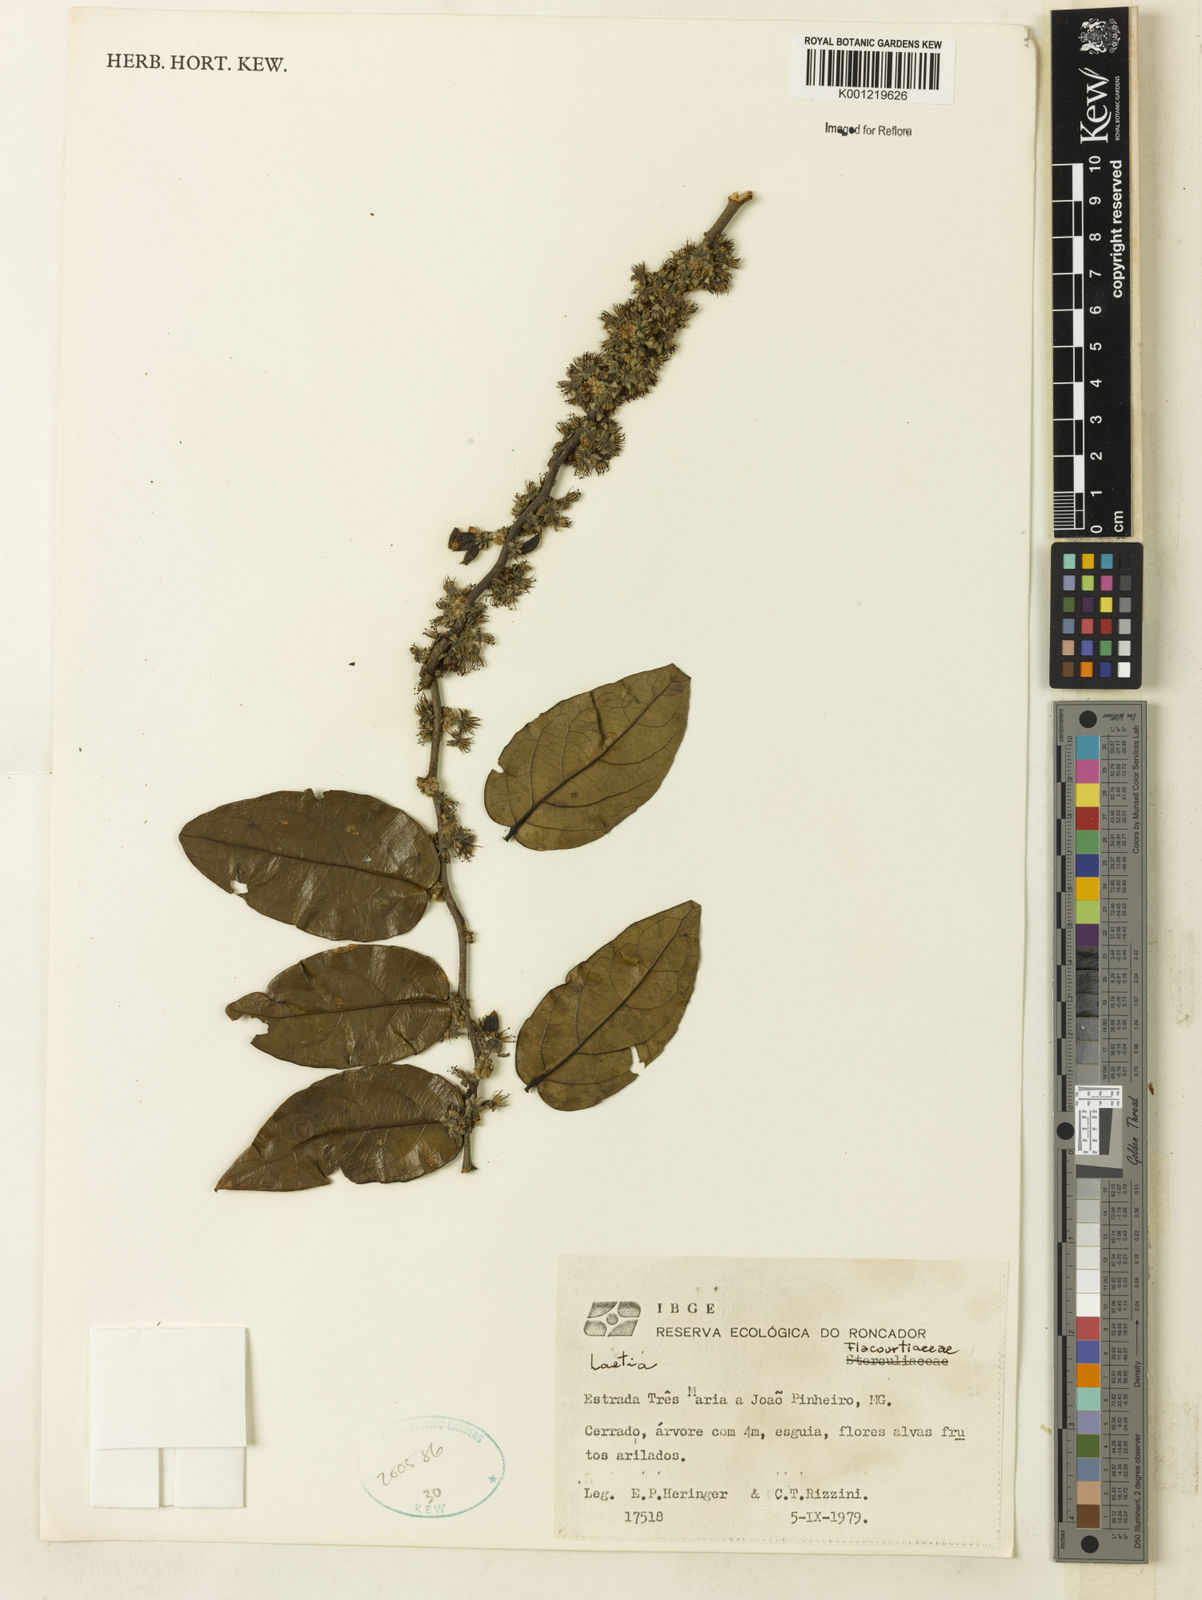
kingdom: Plantae
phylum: Tracheophyta
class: Magnoliopsida
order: Malpighiales
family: Flacourtiaceae
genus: Laetia
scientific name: Laetia
